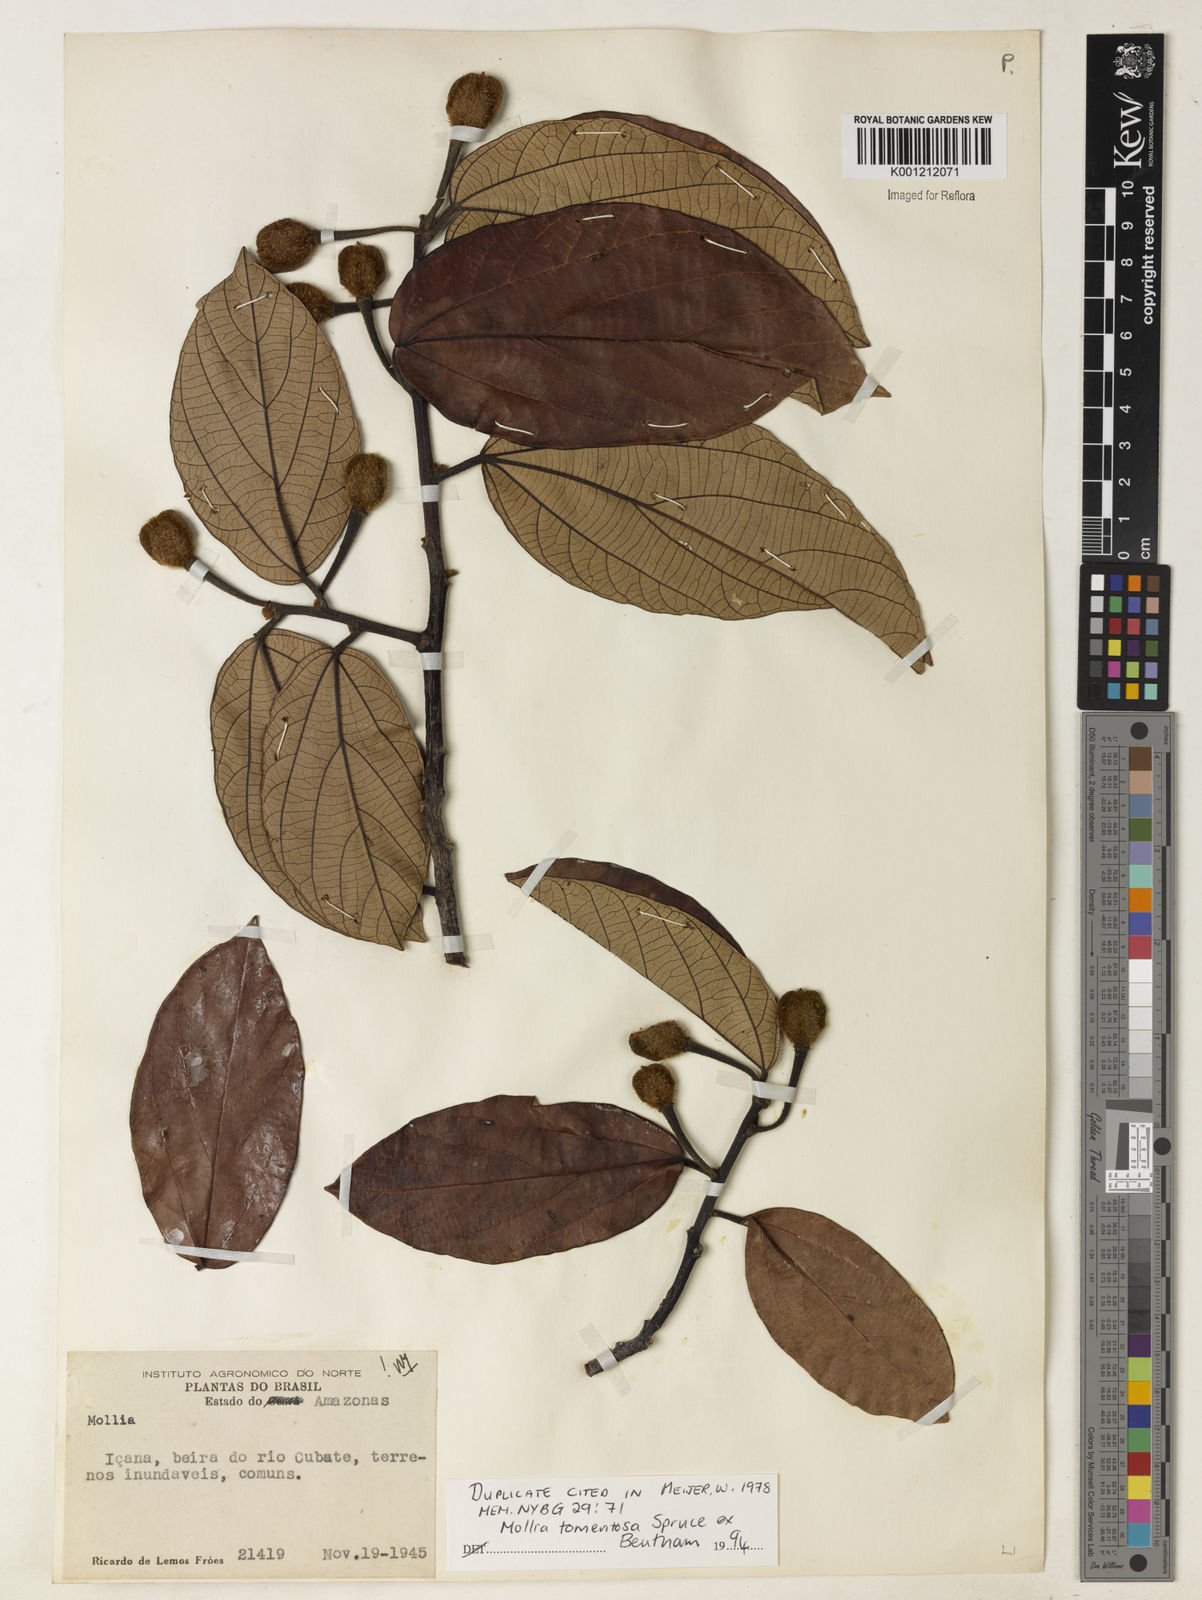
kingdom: Plantae
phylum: Tracheophyta
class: Magnoliopsida
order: Malvales
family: Malvaceae
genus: Mollia
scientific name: Mollia tomentosa
